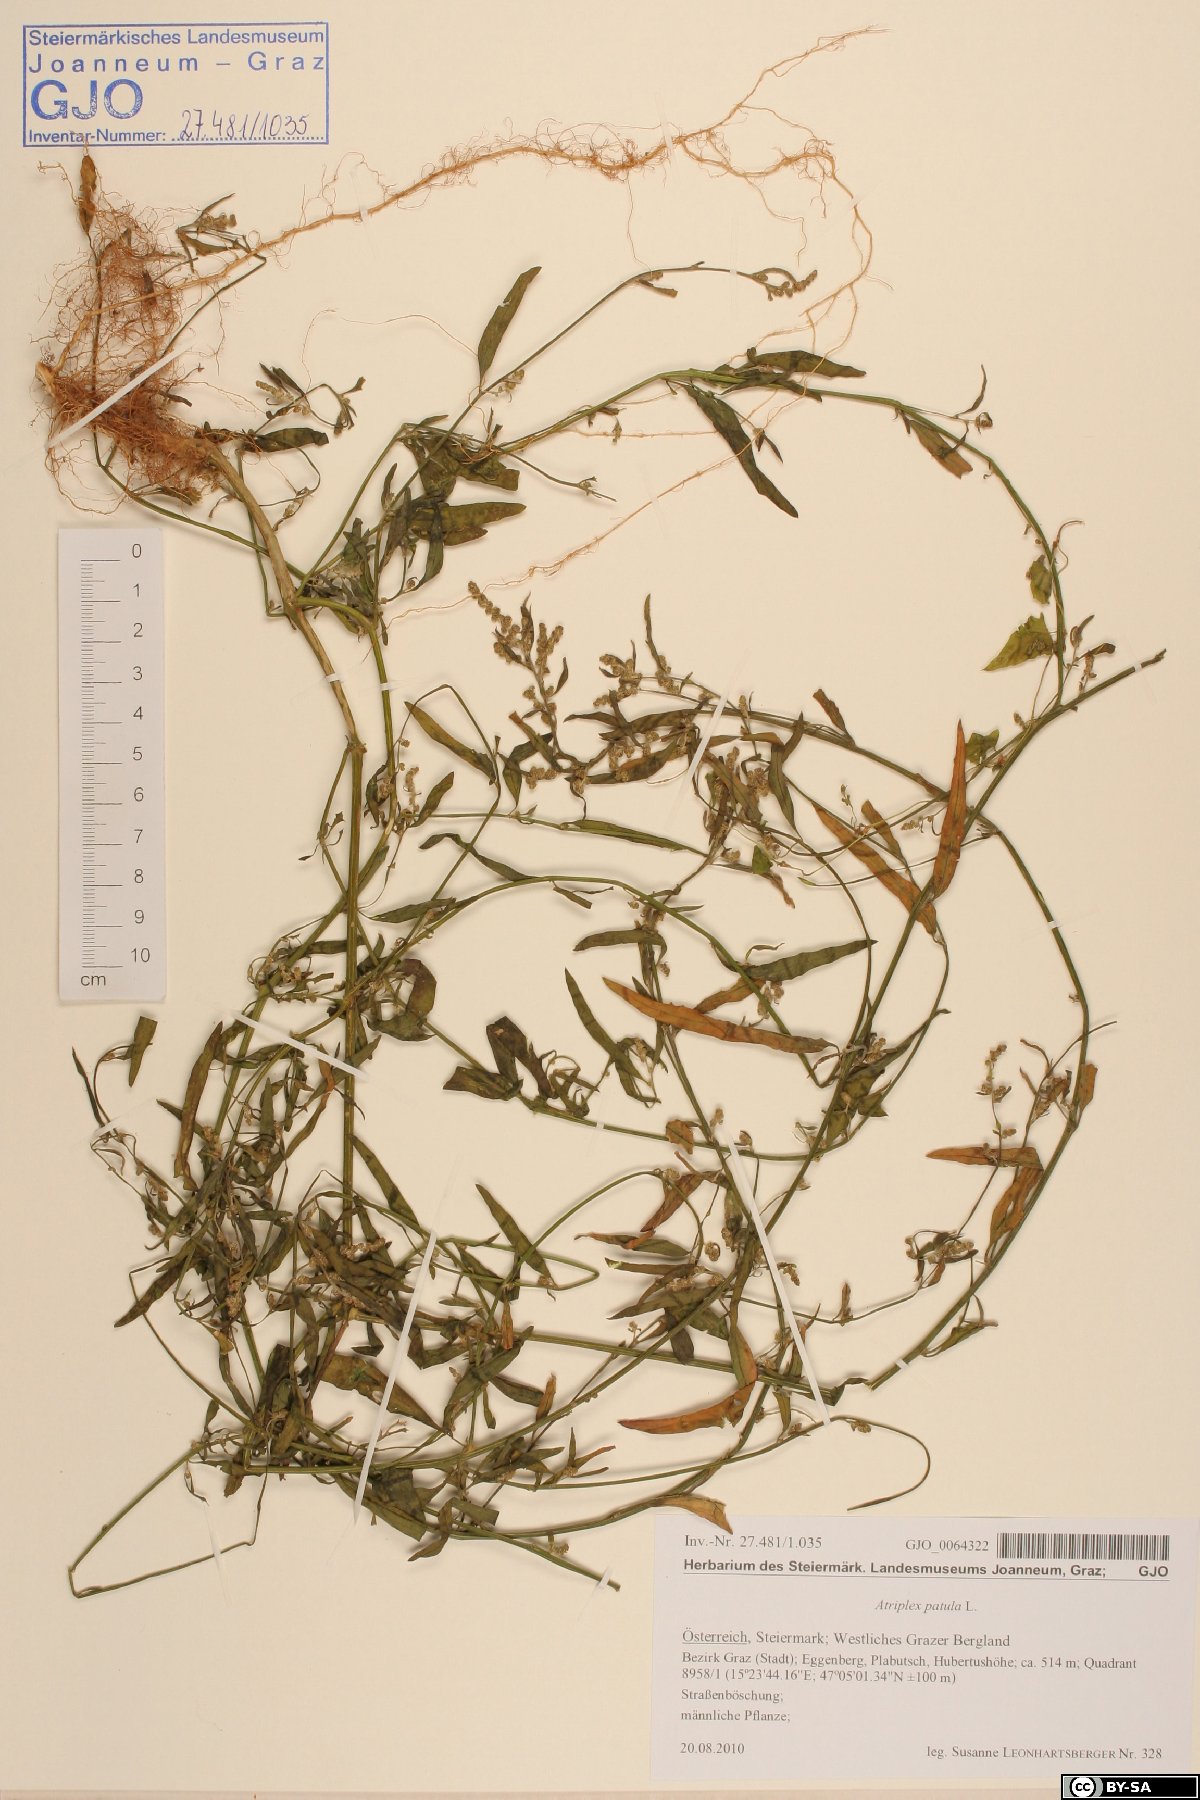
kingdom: Plantae
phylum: Tracheophyta
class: Magnoliopsida
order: Caryophyllales
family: Amaranthaceae
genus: Atriplex
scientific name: Atriplex patula
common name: Common orache
